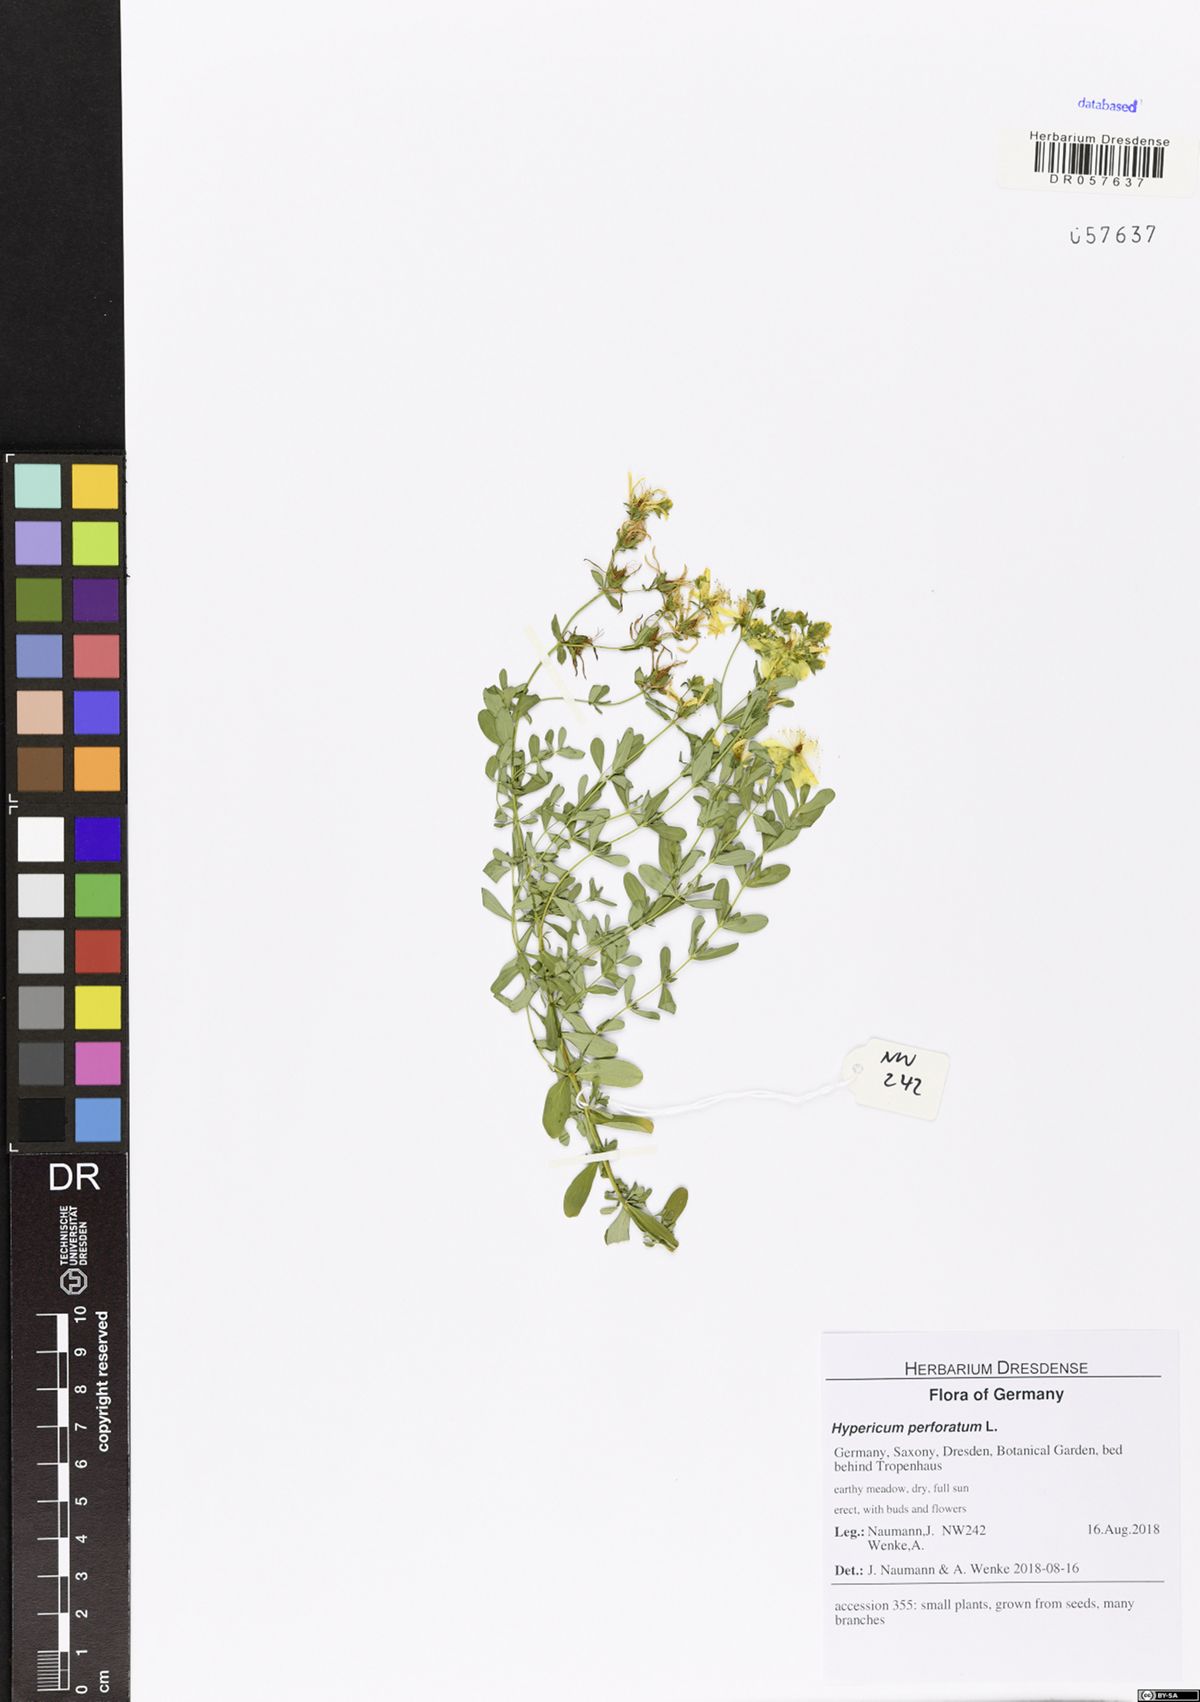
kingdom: Plantae
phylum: Tracheophyta
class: Magnoliopsida
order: Malpighiales
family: Hypericaceae
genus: Hypericum
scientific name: Hypericum perforatum
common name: Common st. johnswort
